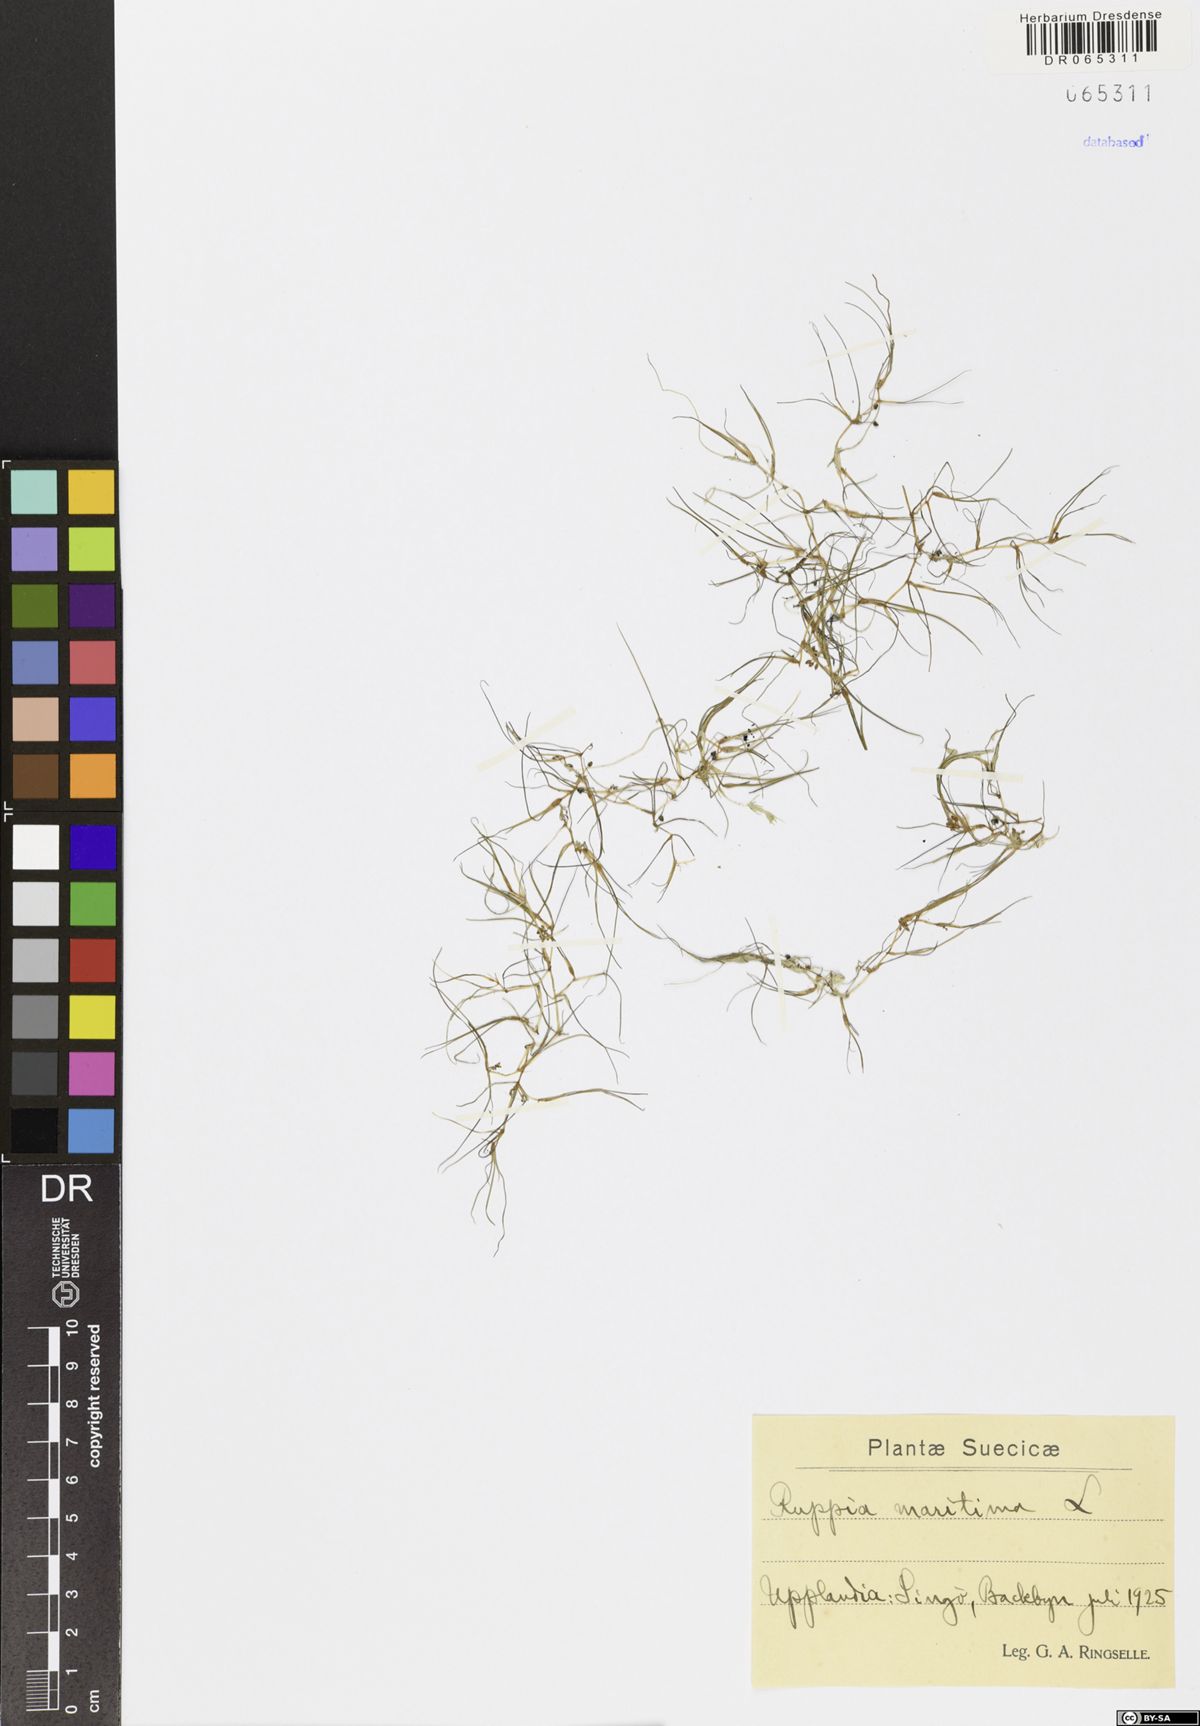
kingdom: Plantae
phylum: Tracheophyta
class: Liliopsida
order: Alismatales
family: Ruppiaceae
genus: Ruppia
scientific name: Ruppia maritima
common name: Beaked tasselweed
